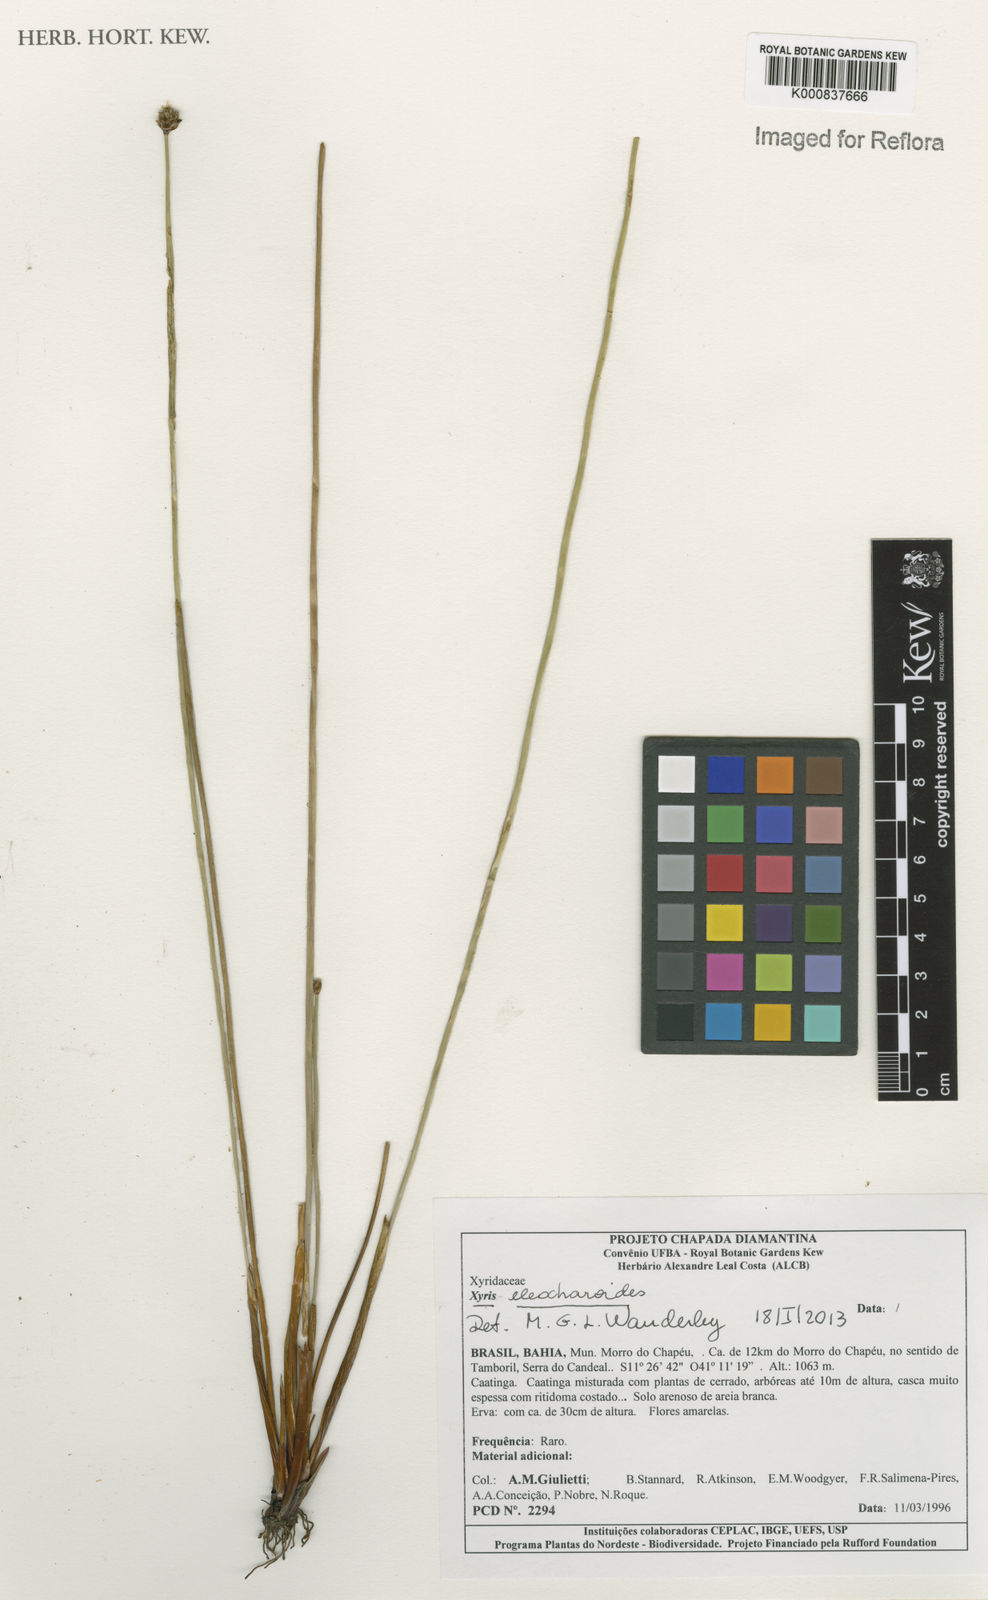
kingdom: Plantae
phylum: Tracheophyta
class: Liliopsida
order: Poales
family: Xyridaceae
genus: Xyris
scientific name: Xyris eleocharoides
